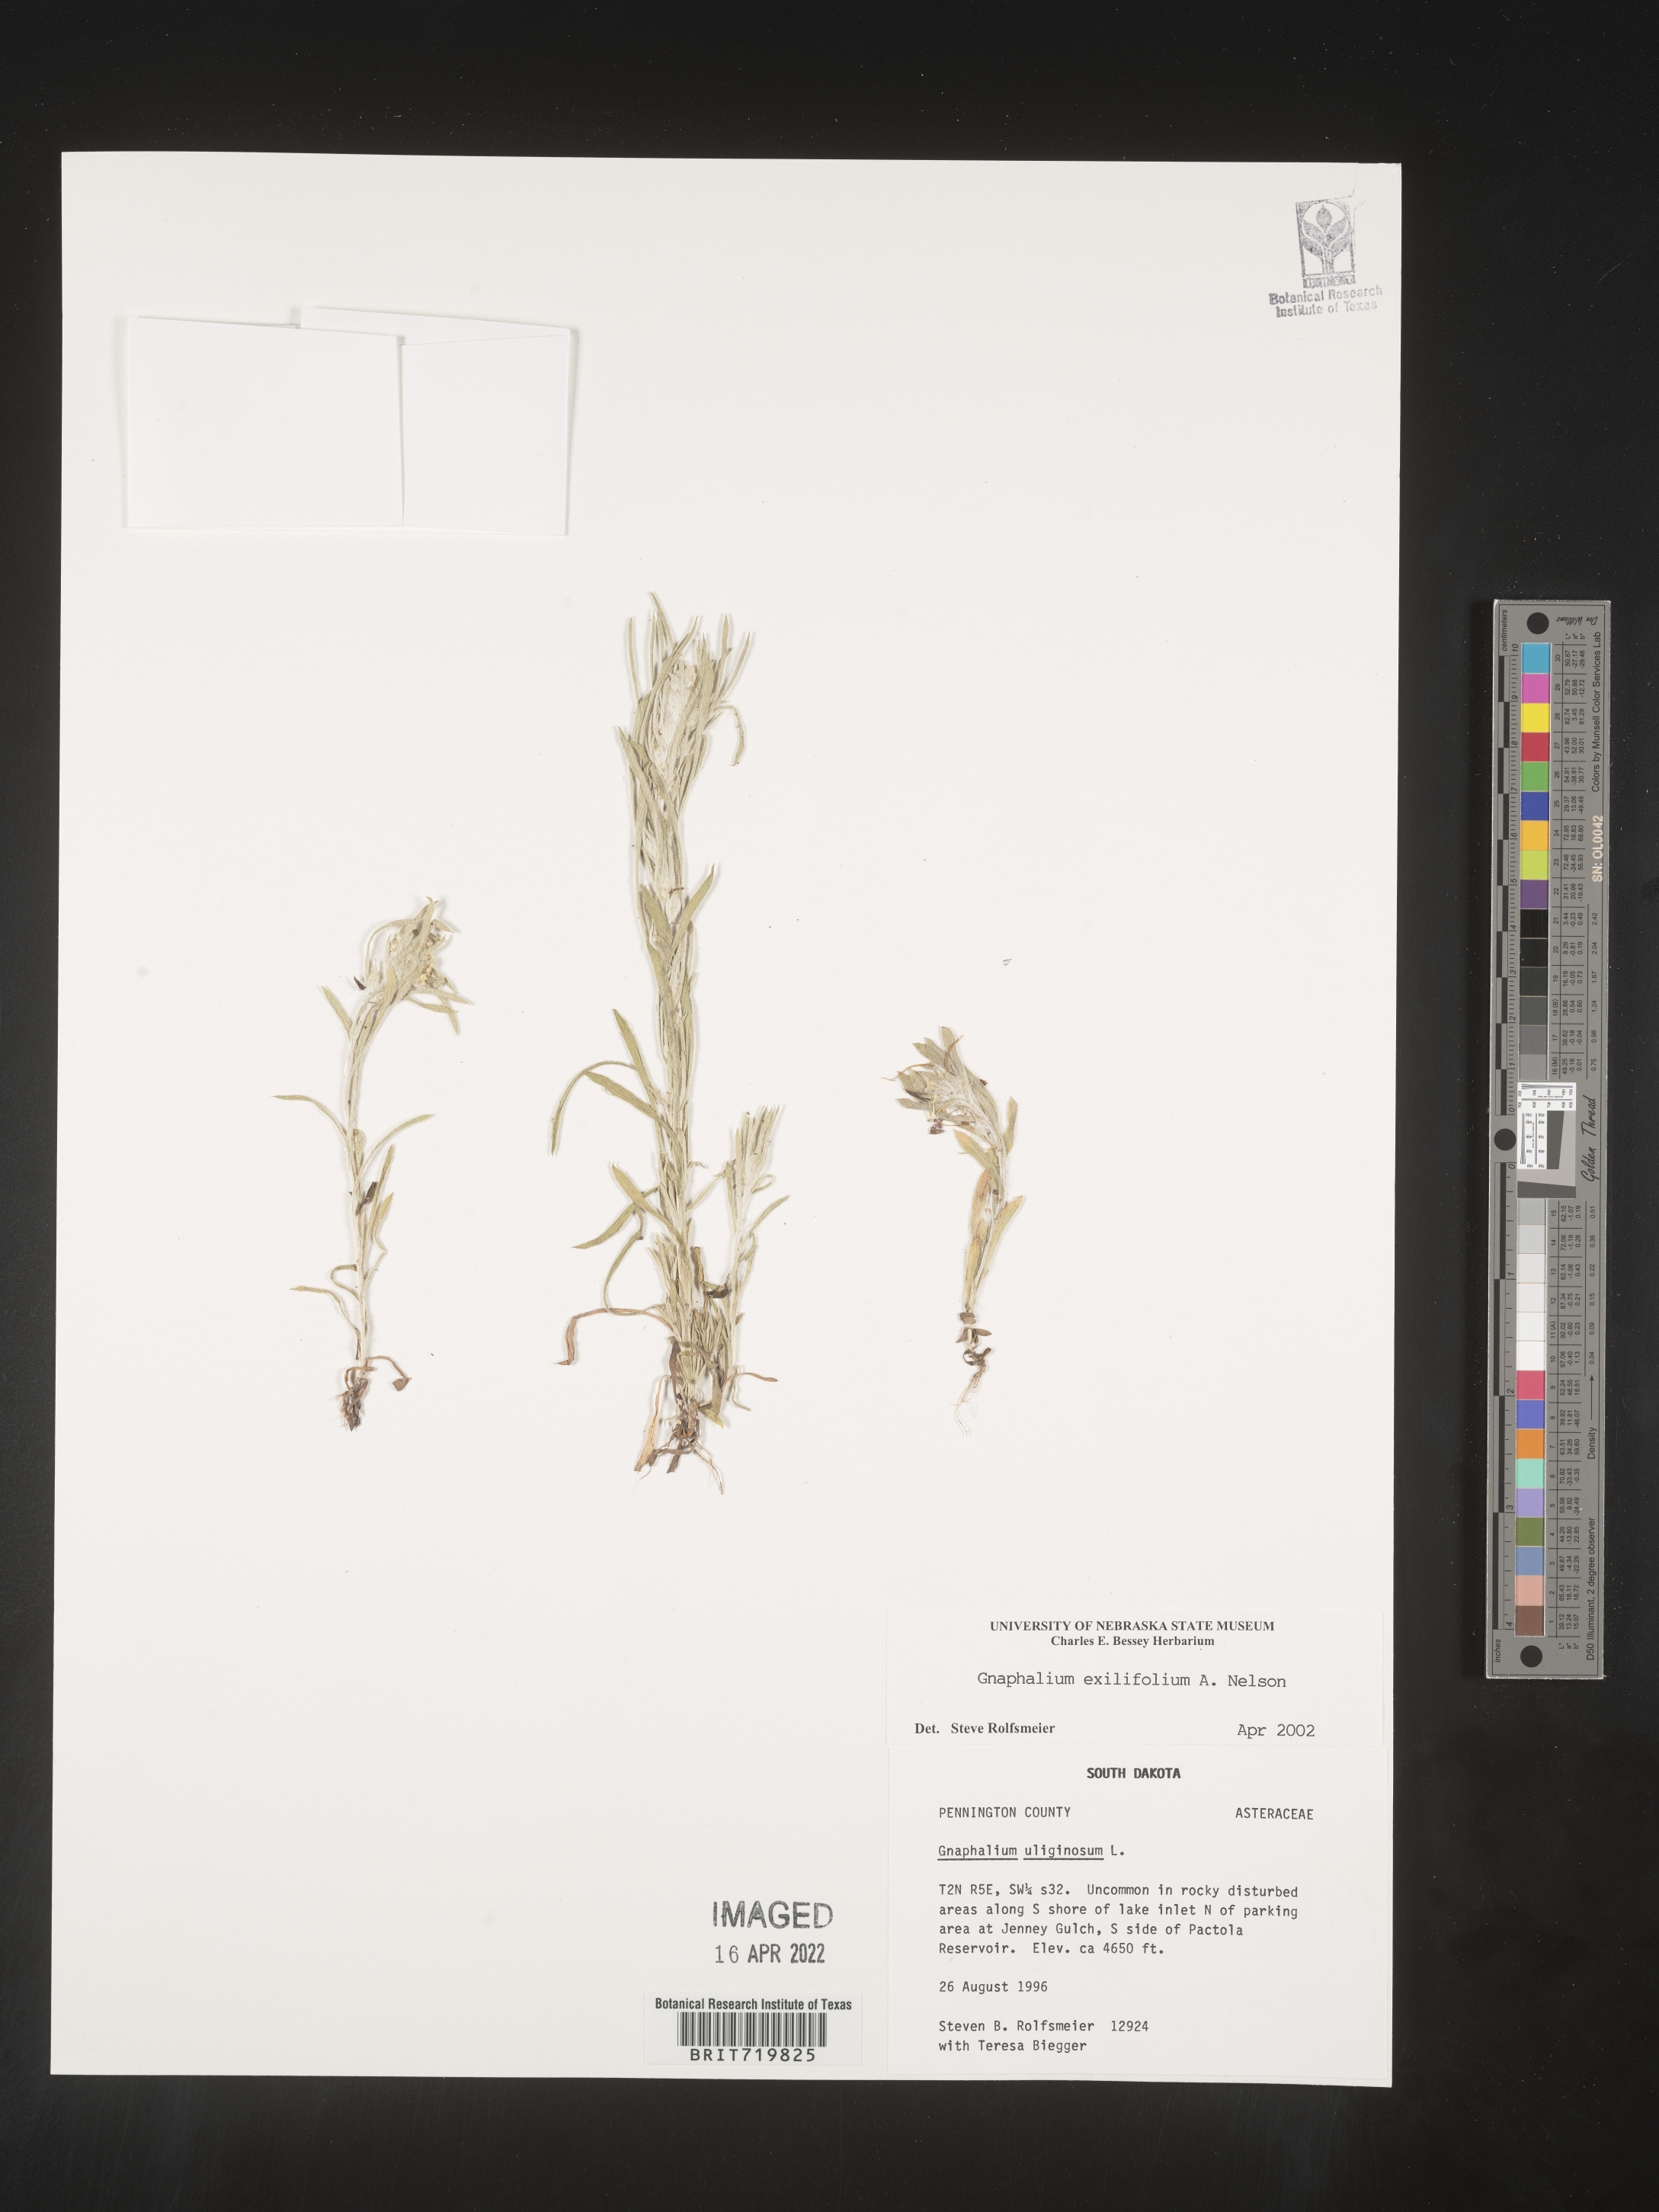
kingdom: Plantae
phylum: Tracheophyta
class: Magnoliopsida
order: Asterales
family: Asteraceae
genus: Gnaphalium
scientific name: Gnaphalium
